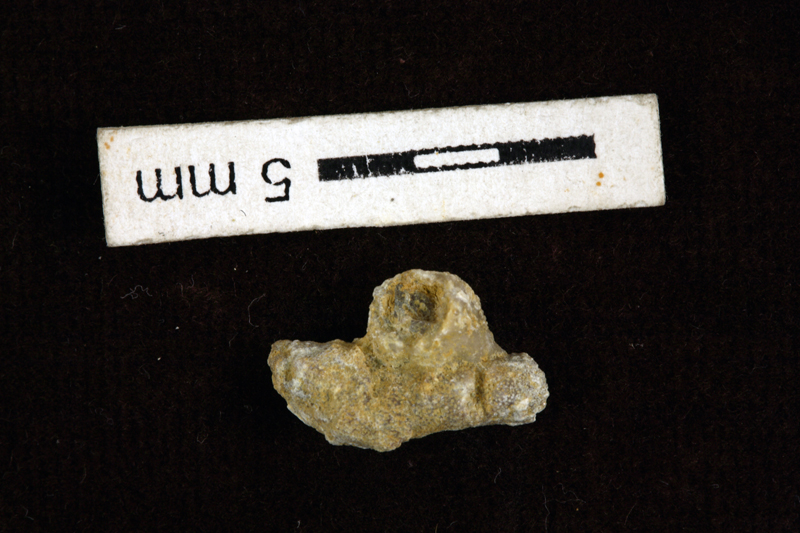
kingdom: Animalia
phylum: Echinodermata
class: Crinoidea
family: Cyathocystidae
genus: Cyathocystis
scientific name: Cyathocystis
